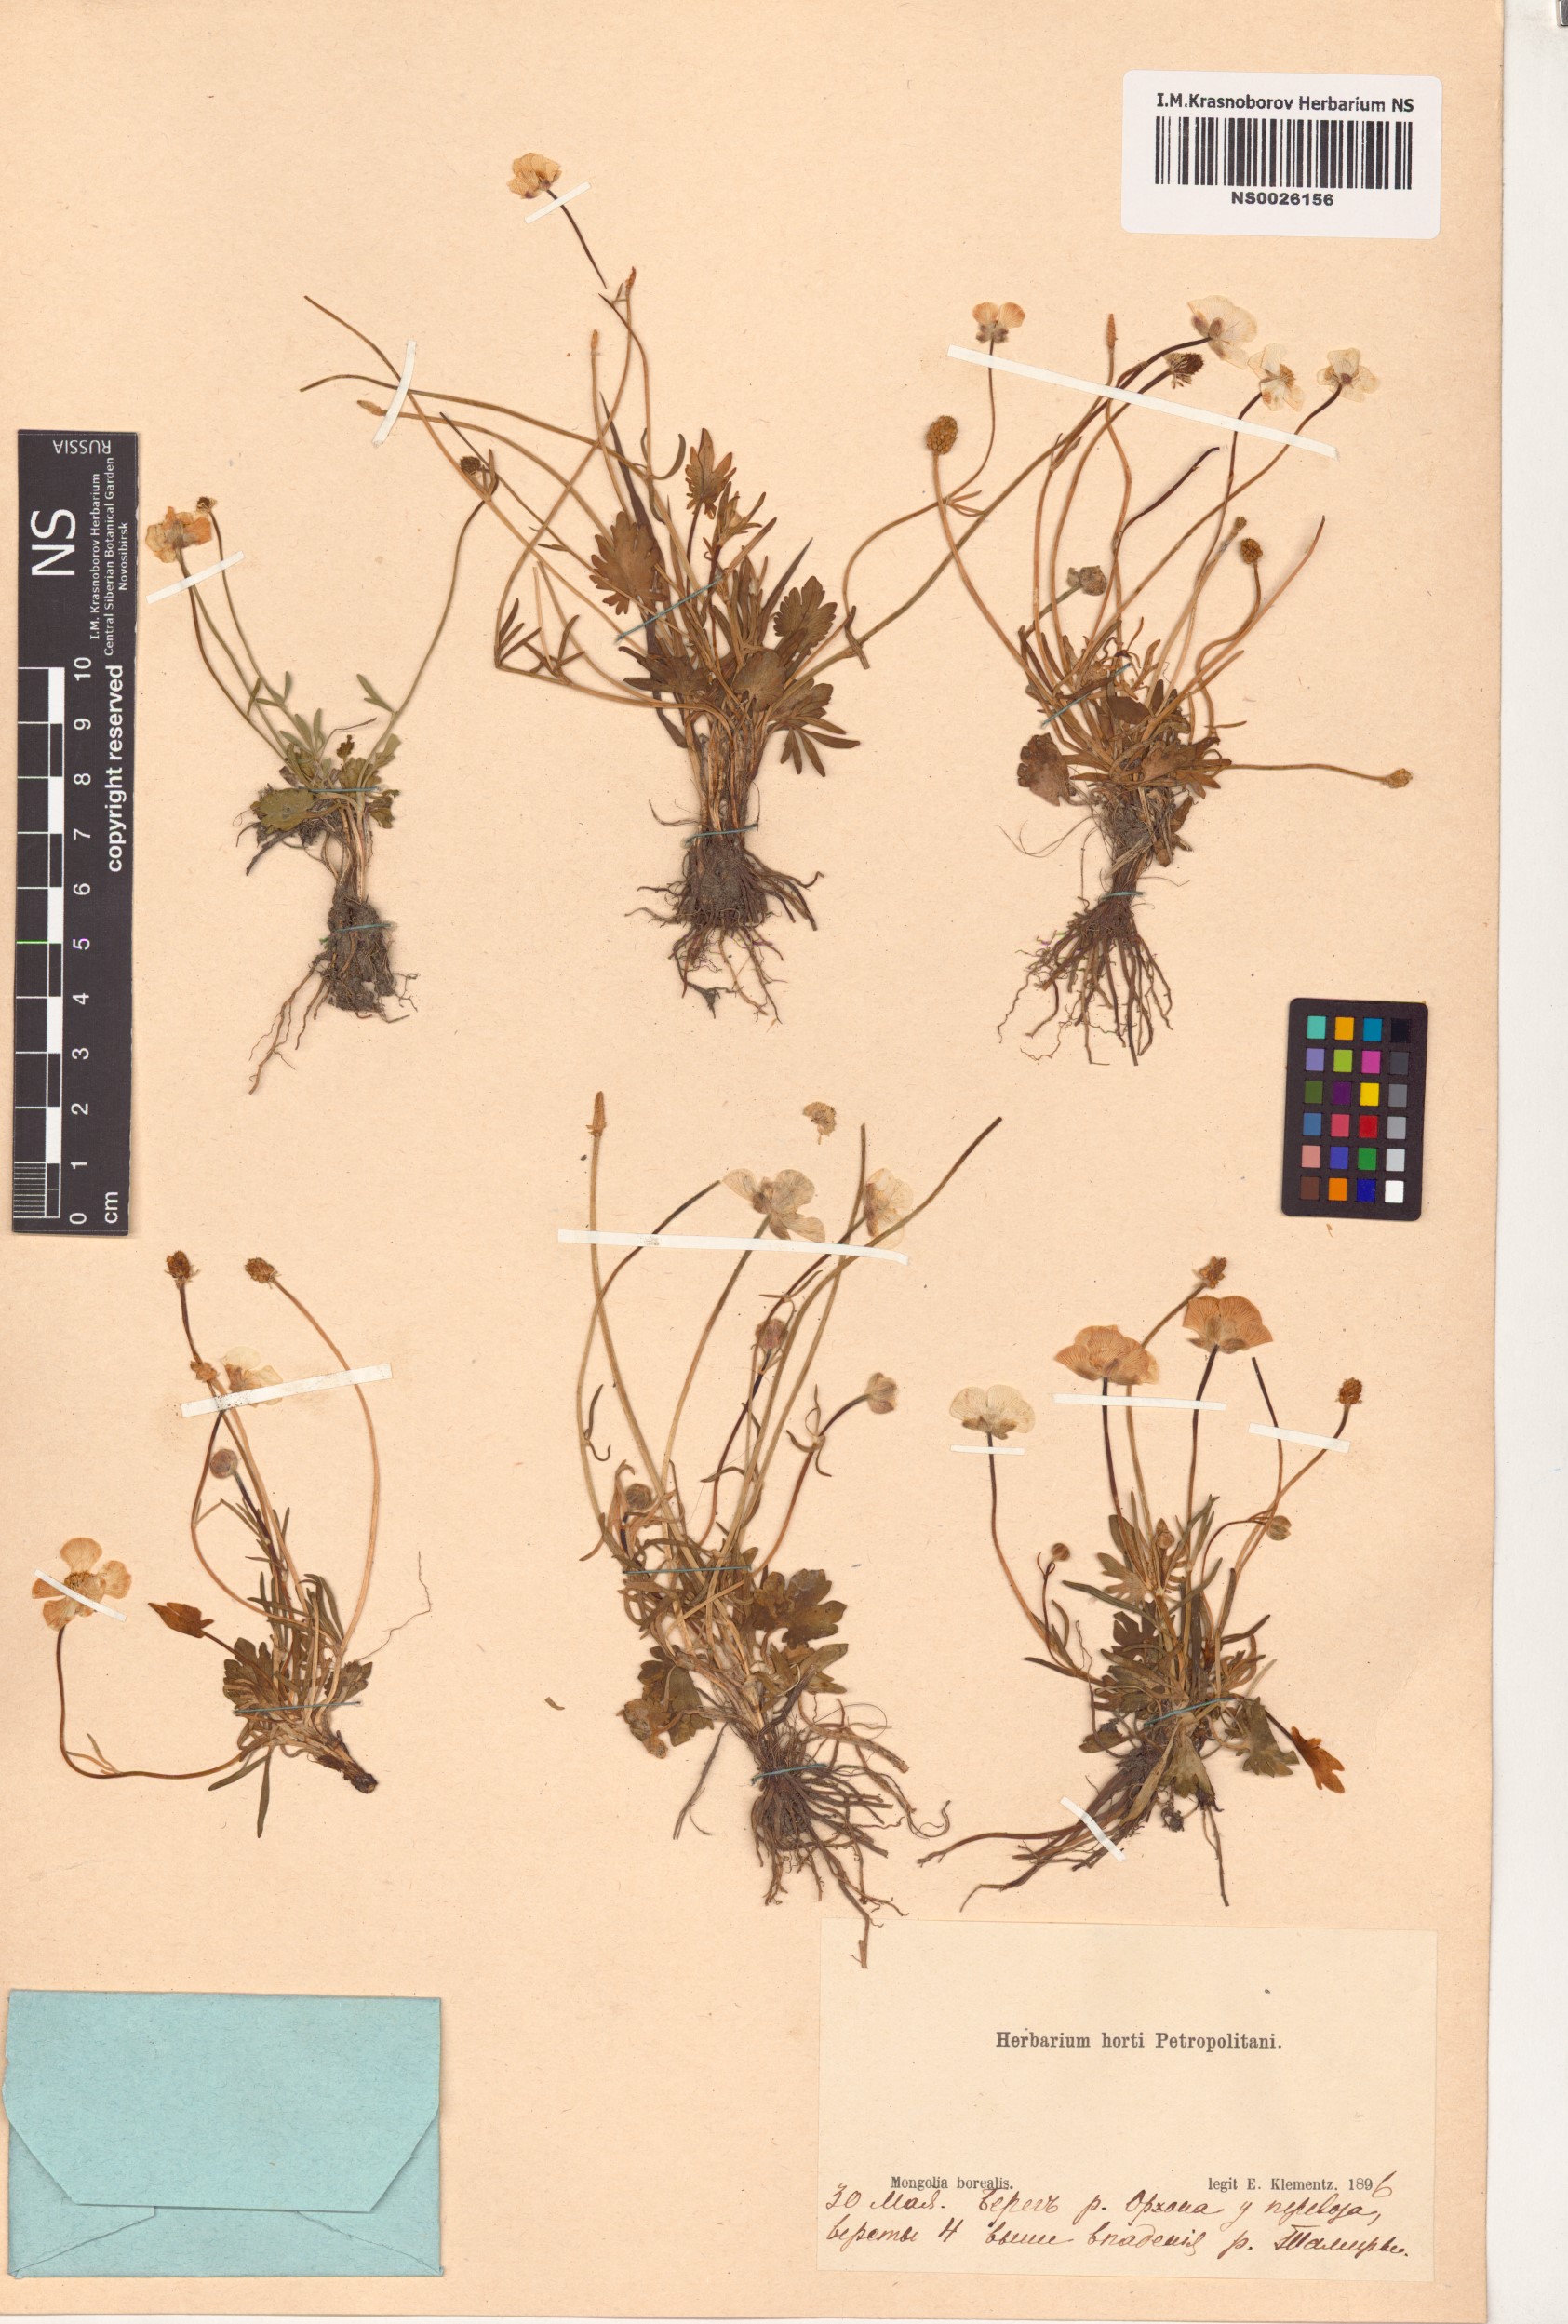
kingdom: Plantae
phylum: Tracheophyta
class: Magnoliopsida
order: Ranunculales
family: Ranunculaceae
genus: Ranunculus
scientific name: Ranunculus pedatifidus
